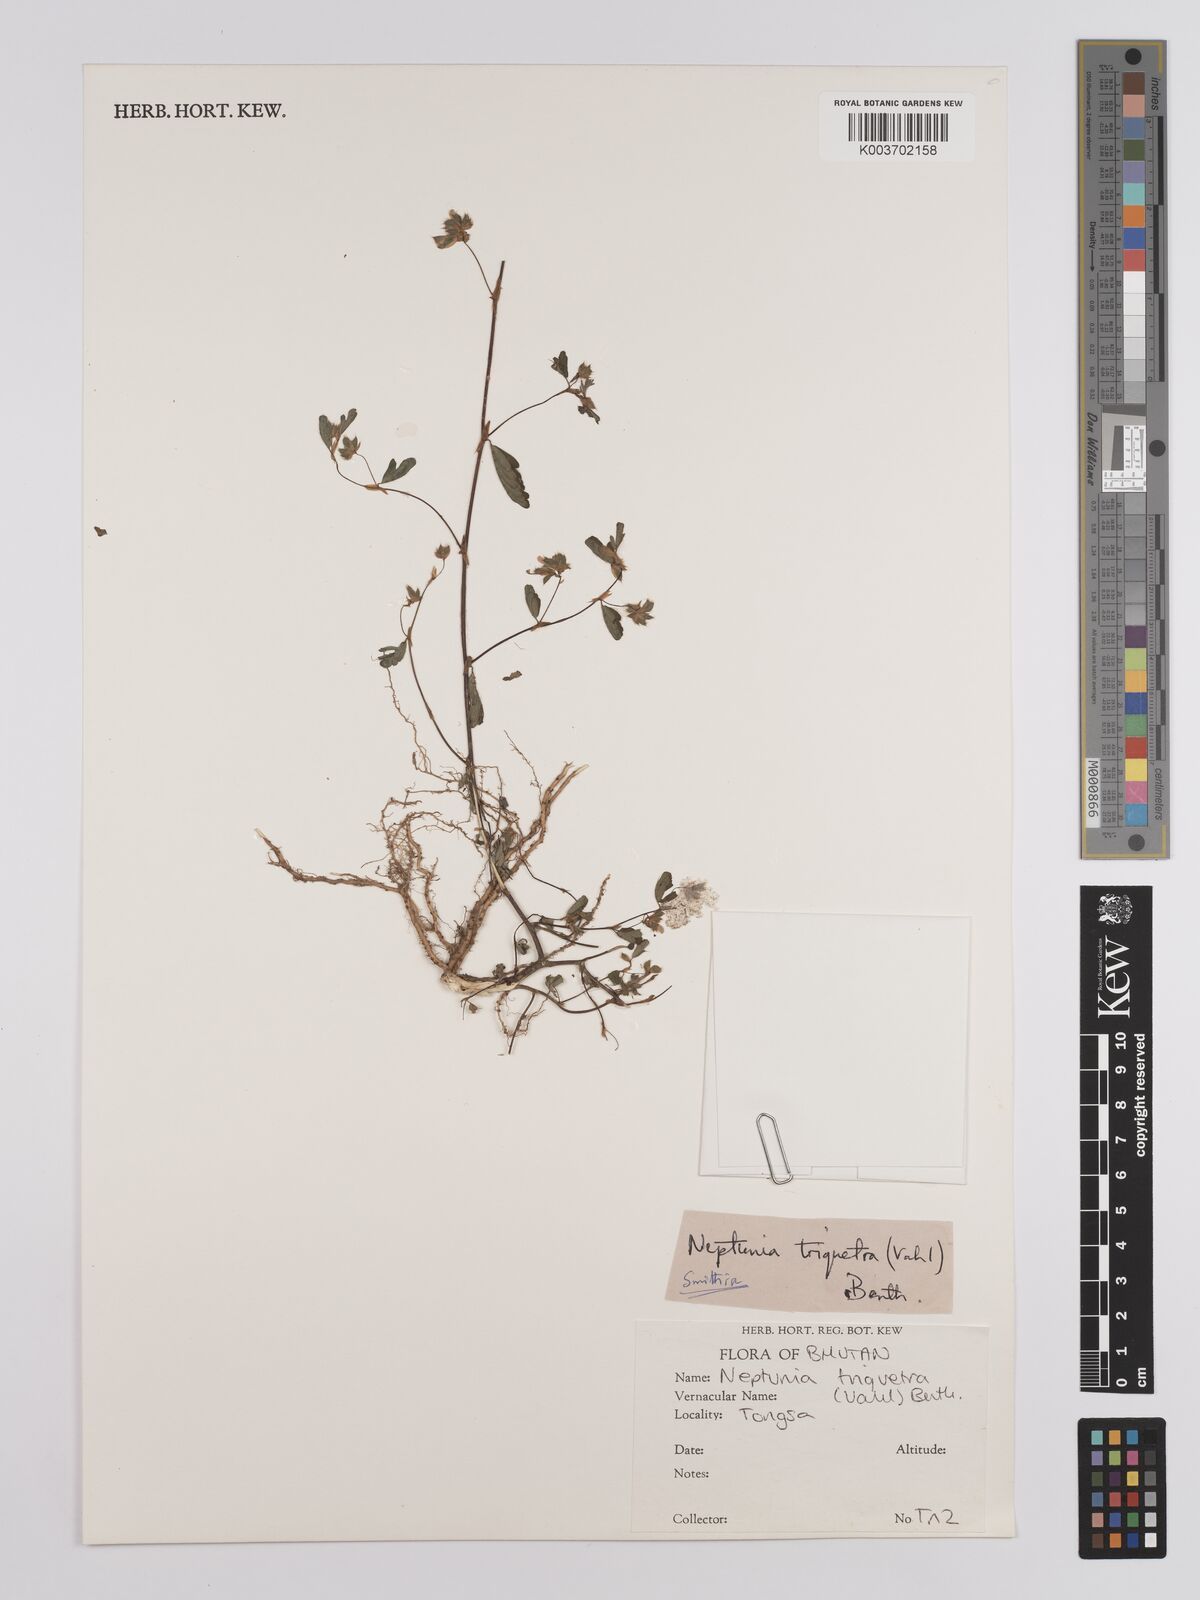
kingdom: Plantae
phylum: Tracheophyta
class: Magnoliopsida
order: Fabales
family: Fabaceae
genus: Neptunia
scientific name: Neptunia triquetra
